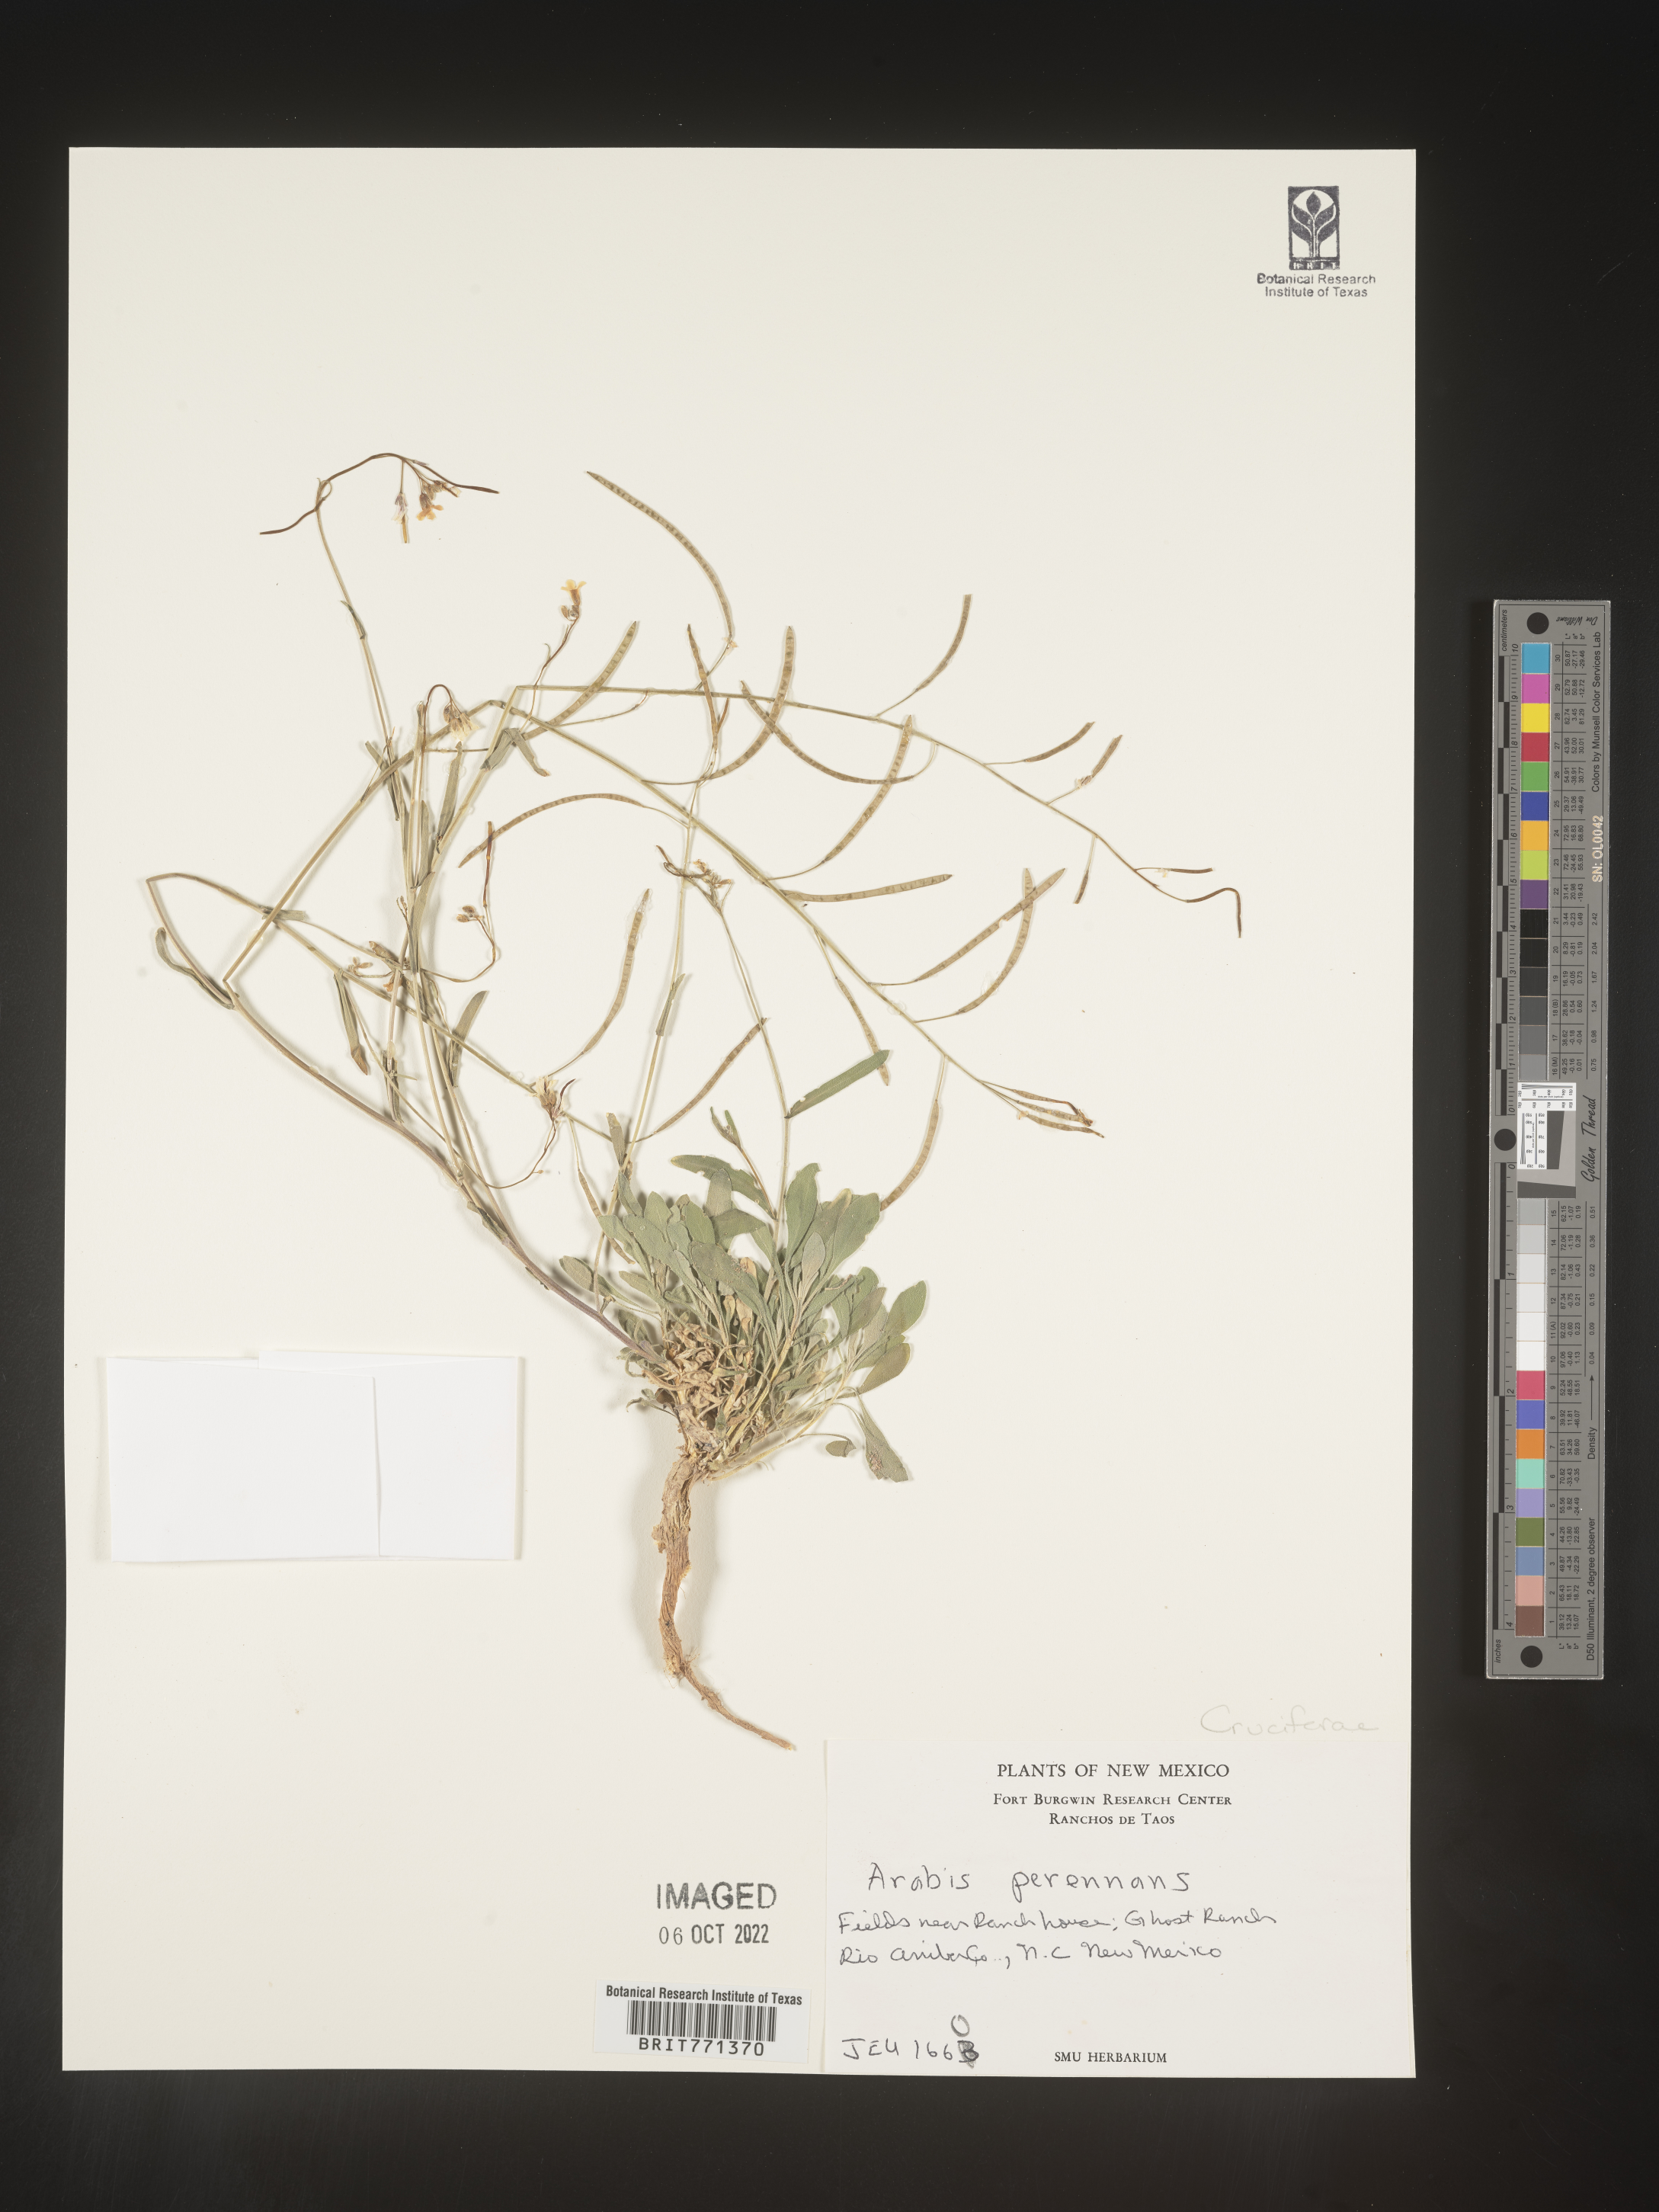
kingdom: Plantae
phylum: Tracheophyta
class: Magnoliopsida
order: Brassicales
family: Brassicaceae
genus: Arabis
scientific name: Arabis
